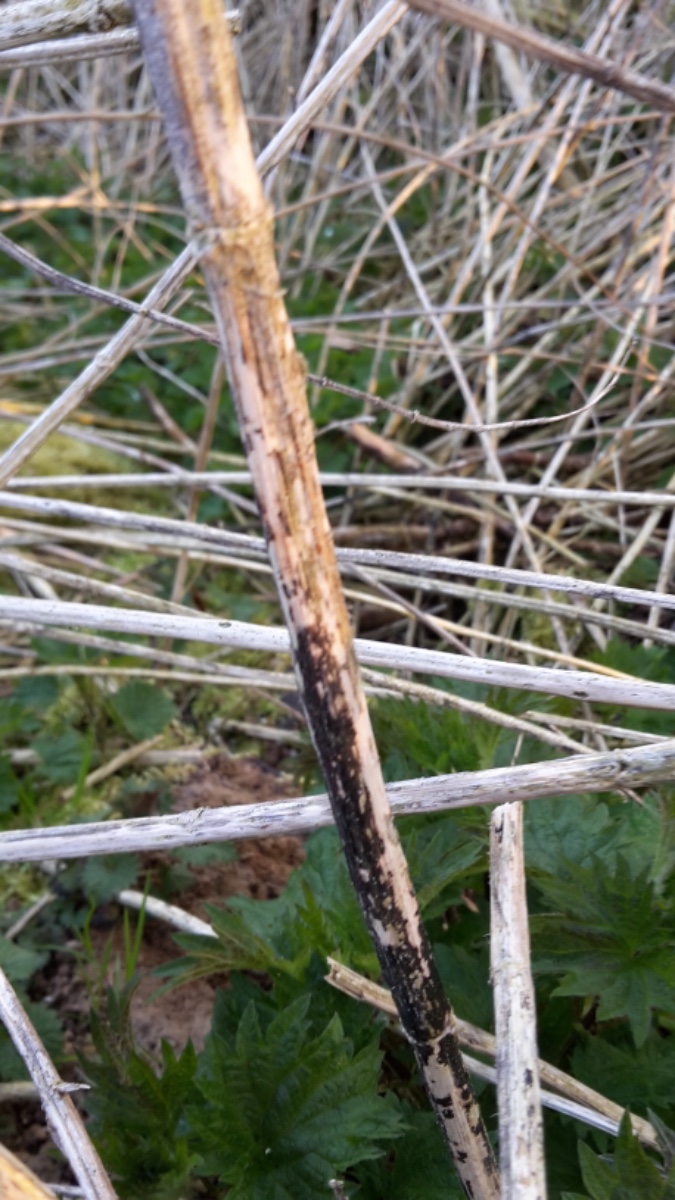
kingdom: Fungi
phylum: Ascomycota
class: Sordariomycetes
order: Diaporthales
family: Diaporthaceae
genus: Diaporthopsis
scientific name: Diaporthopsis urticae
